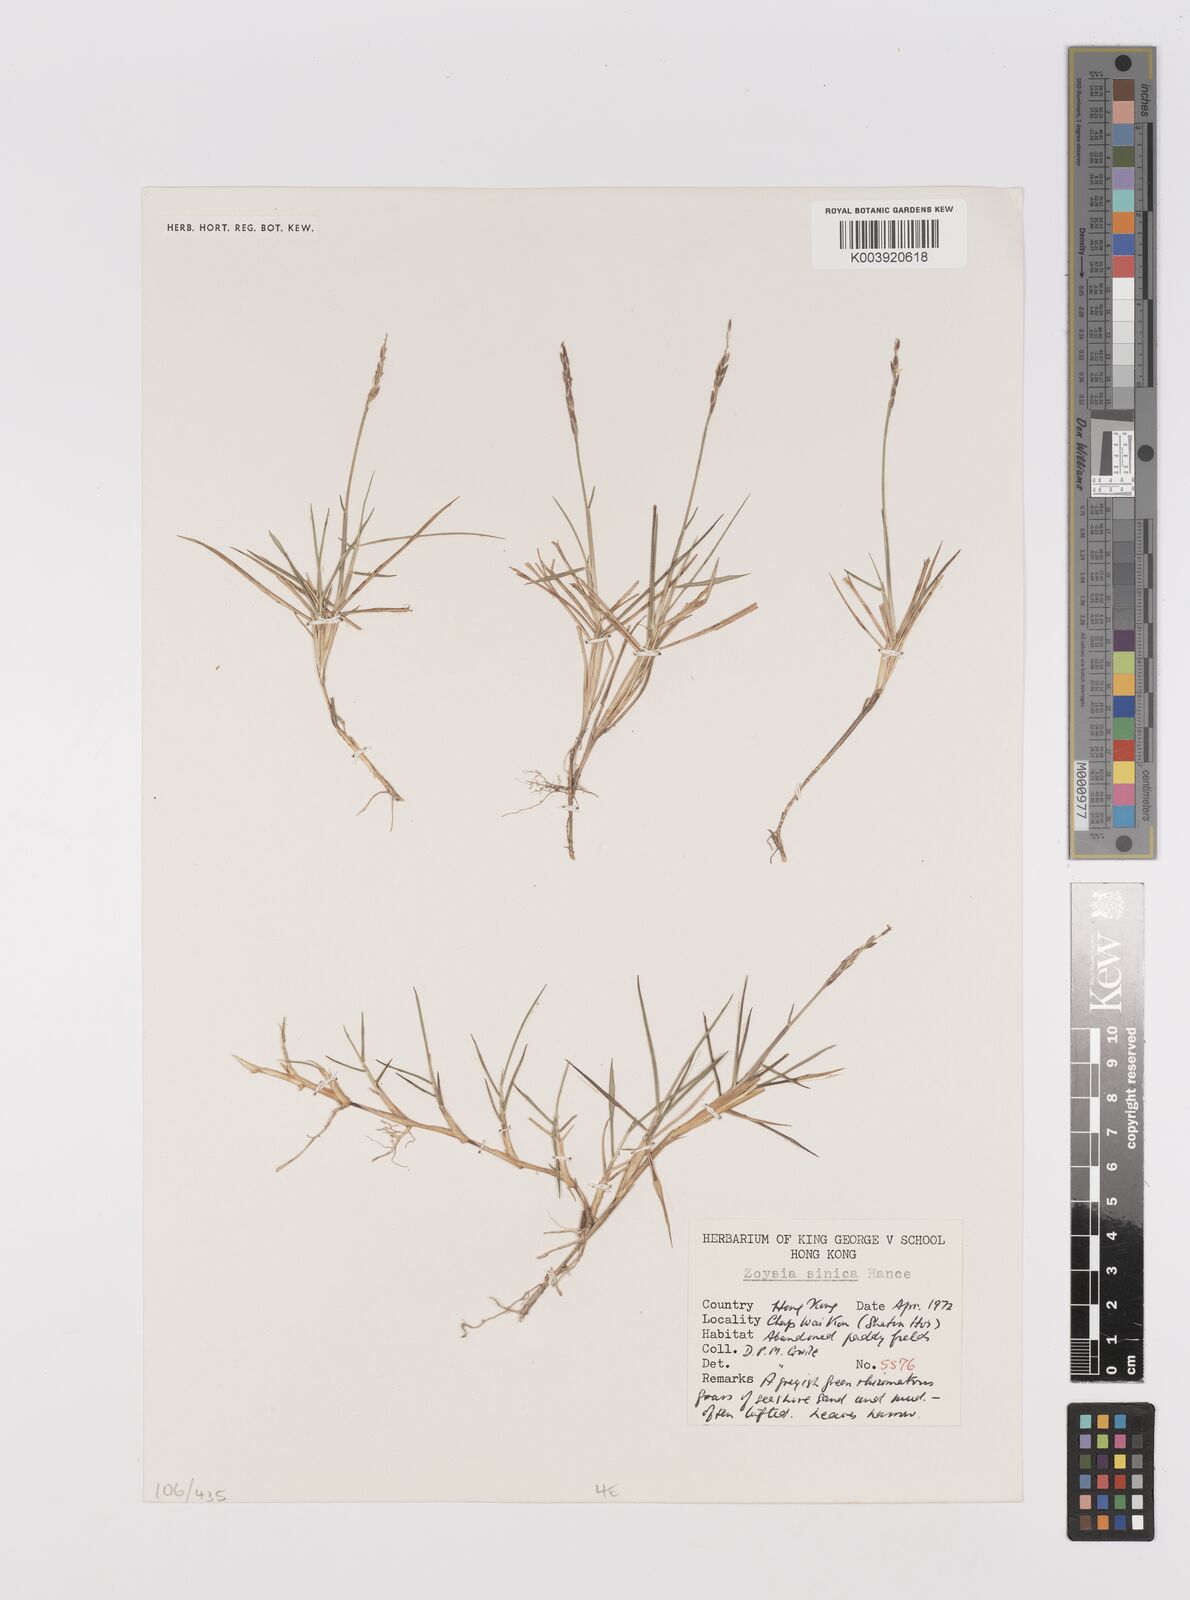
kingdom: Plantae
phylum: Tracheophyta
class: Liliopsida
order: Poales
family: Poaceae
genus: Zoysia
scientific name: Zoysia sinica
